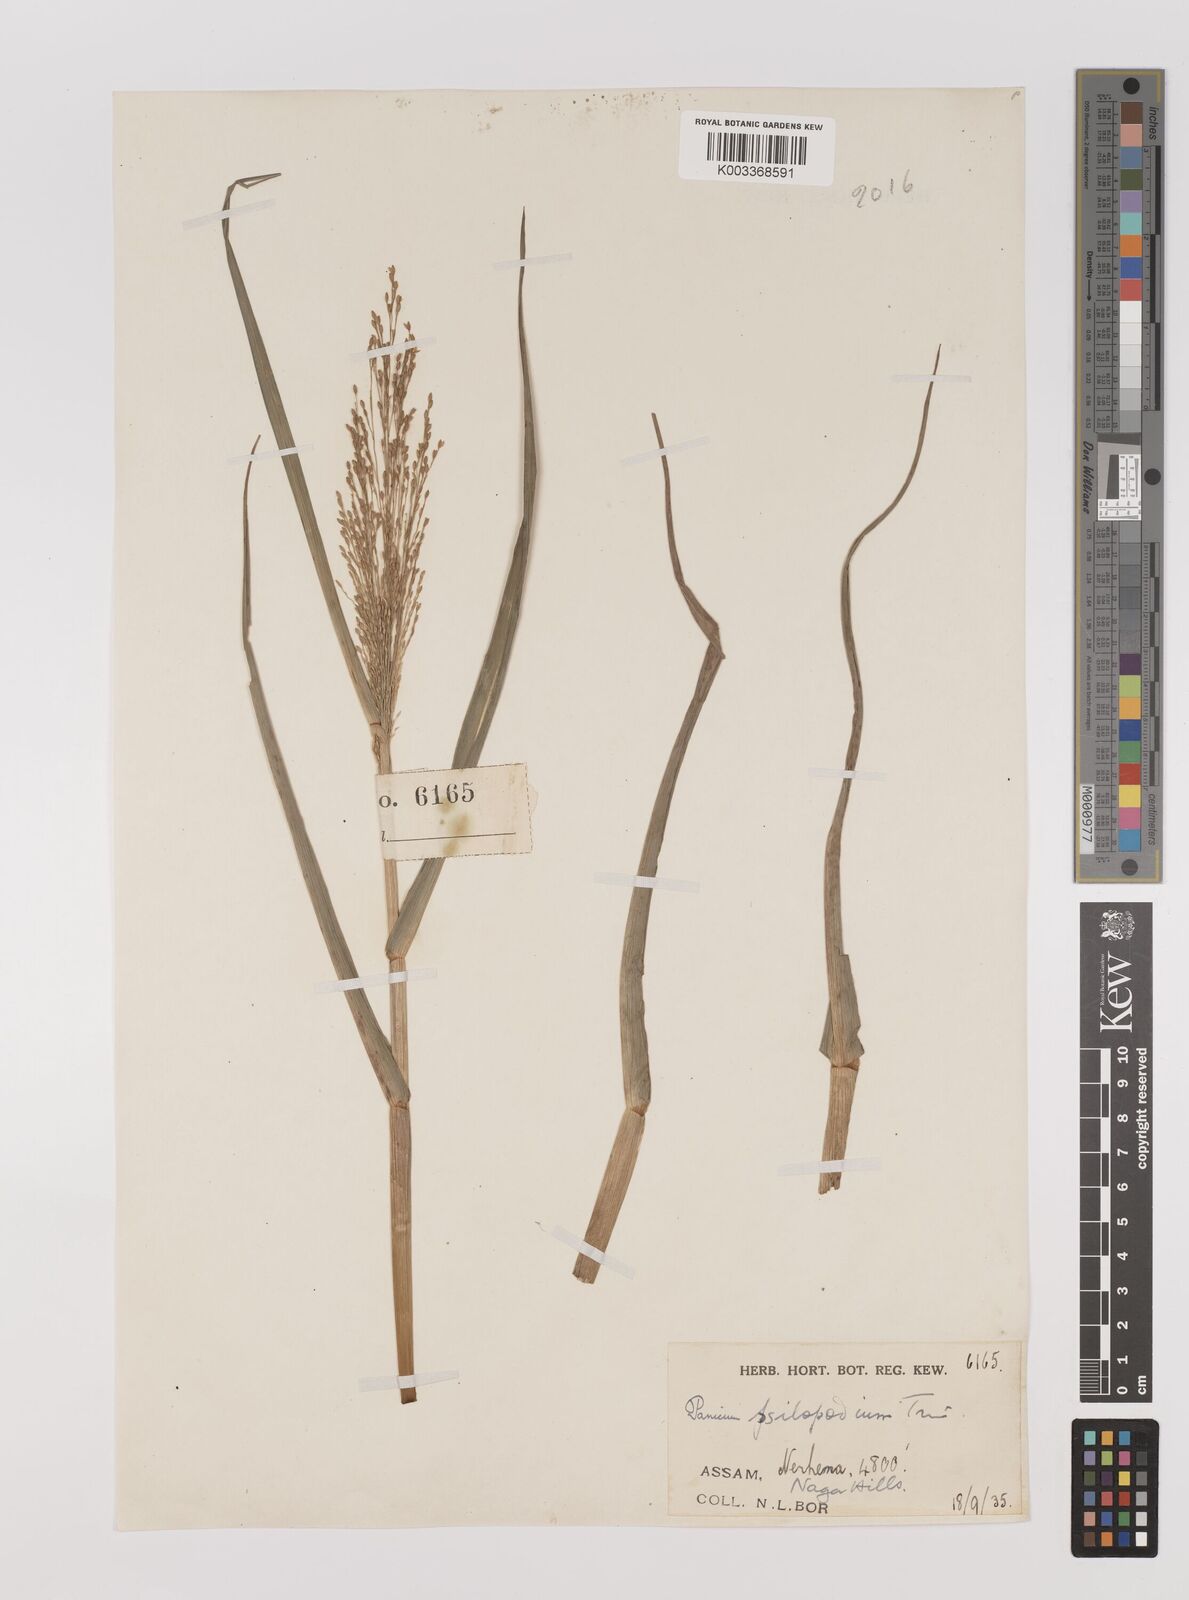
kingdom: Plantae
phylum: Tracheophyta
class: Liliopsida
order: Poales
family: Poaceae
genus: Panicum
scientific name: Panicum sumatrense
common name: Little millet
